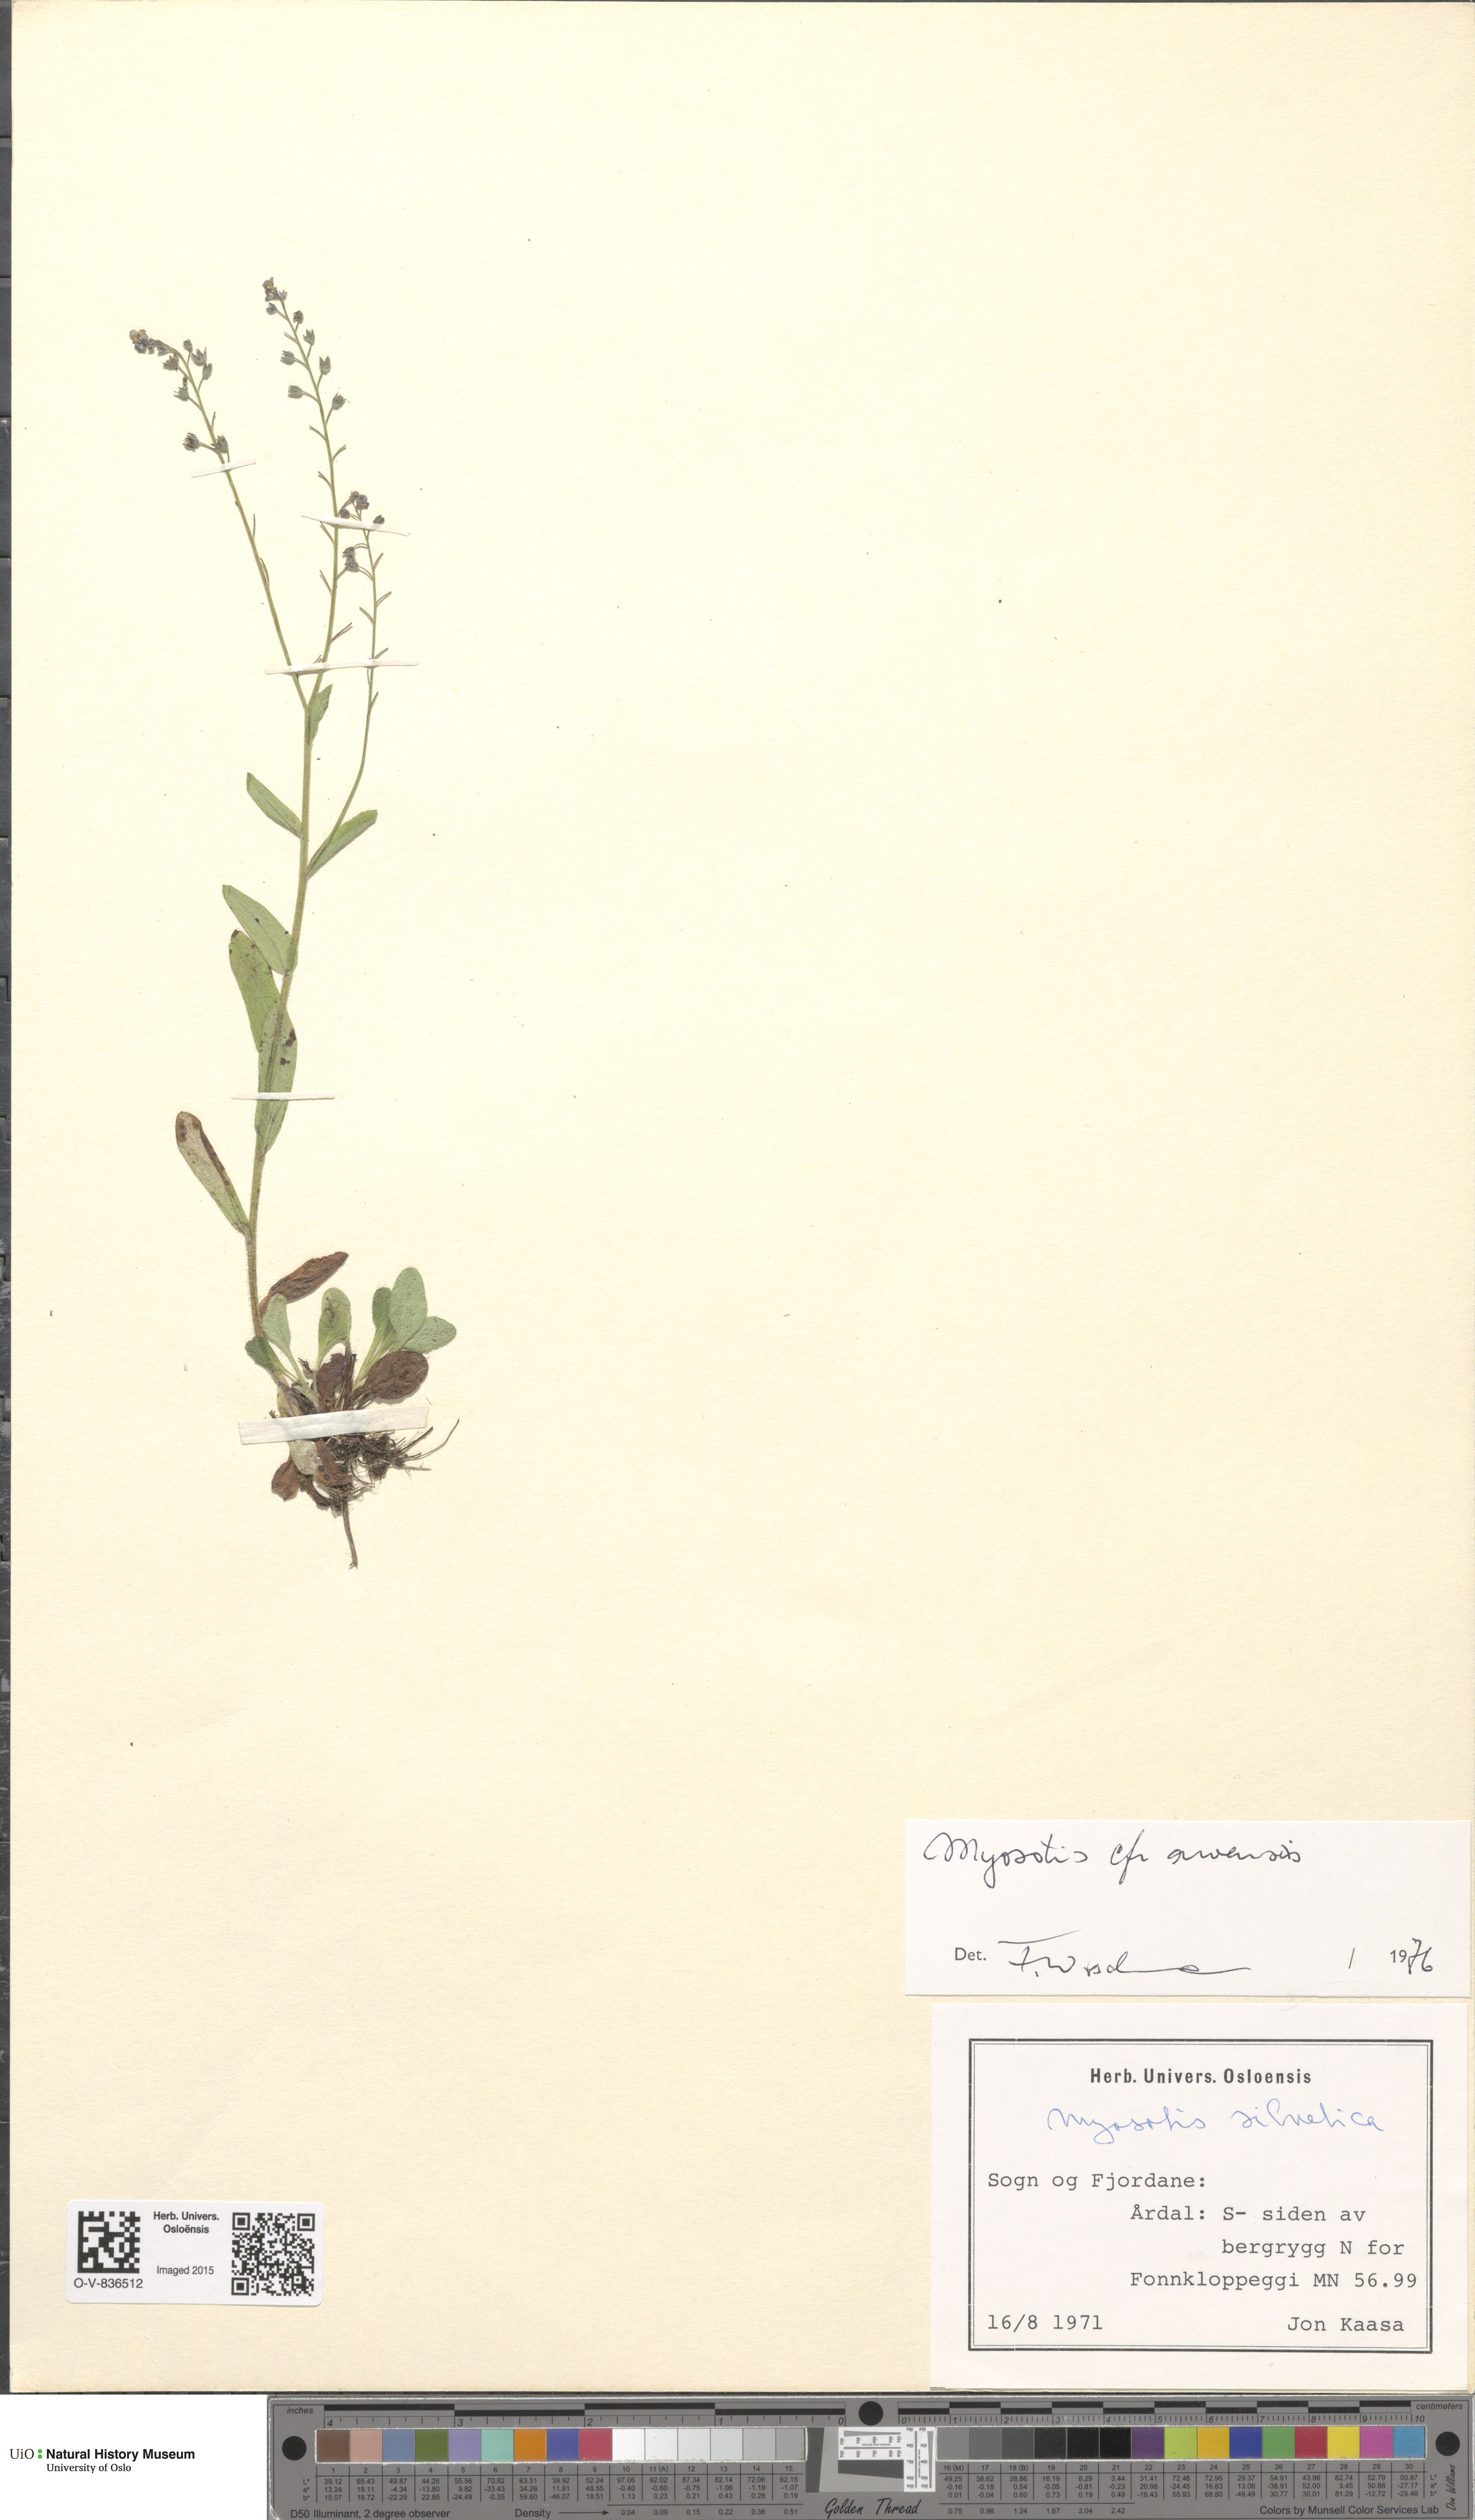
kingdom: Plantae
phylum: Tracheophyta
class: Magnoliopsida
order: Boraginales
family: Boraginaceae
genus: Myosotis
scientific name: Myosotis arvensis
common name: Field forget-me-not
